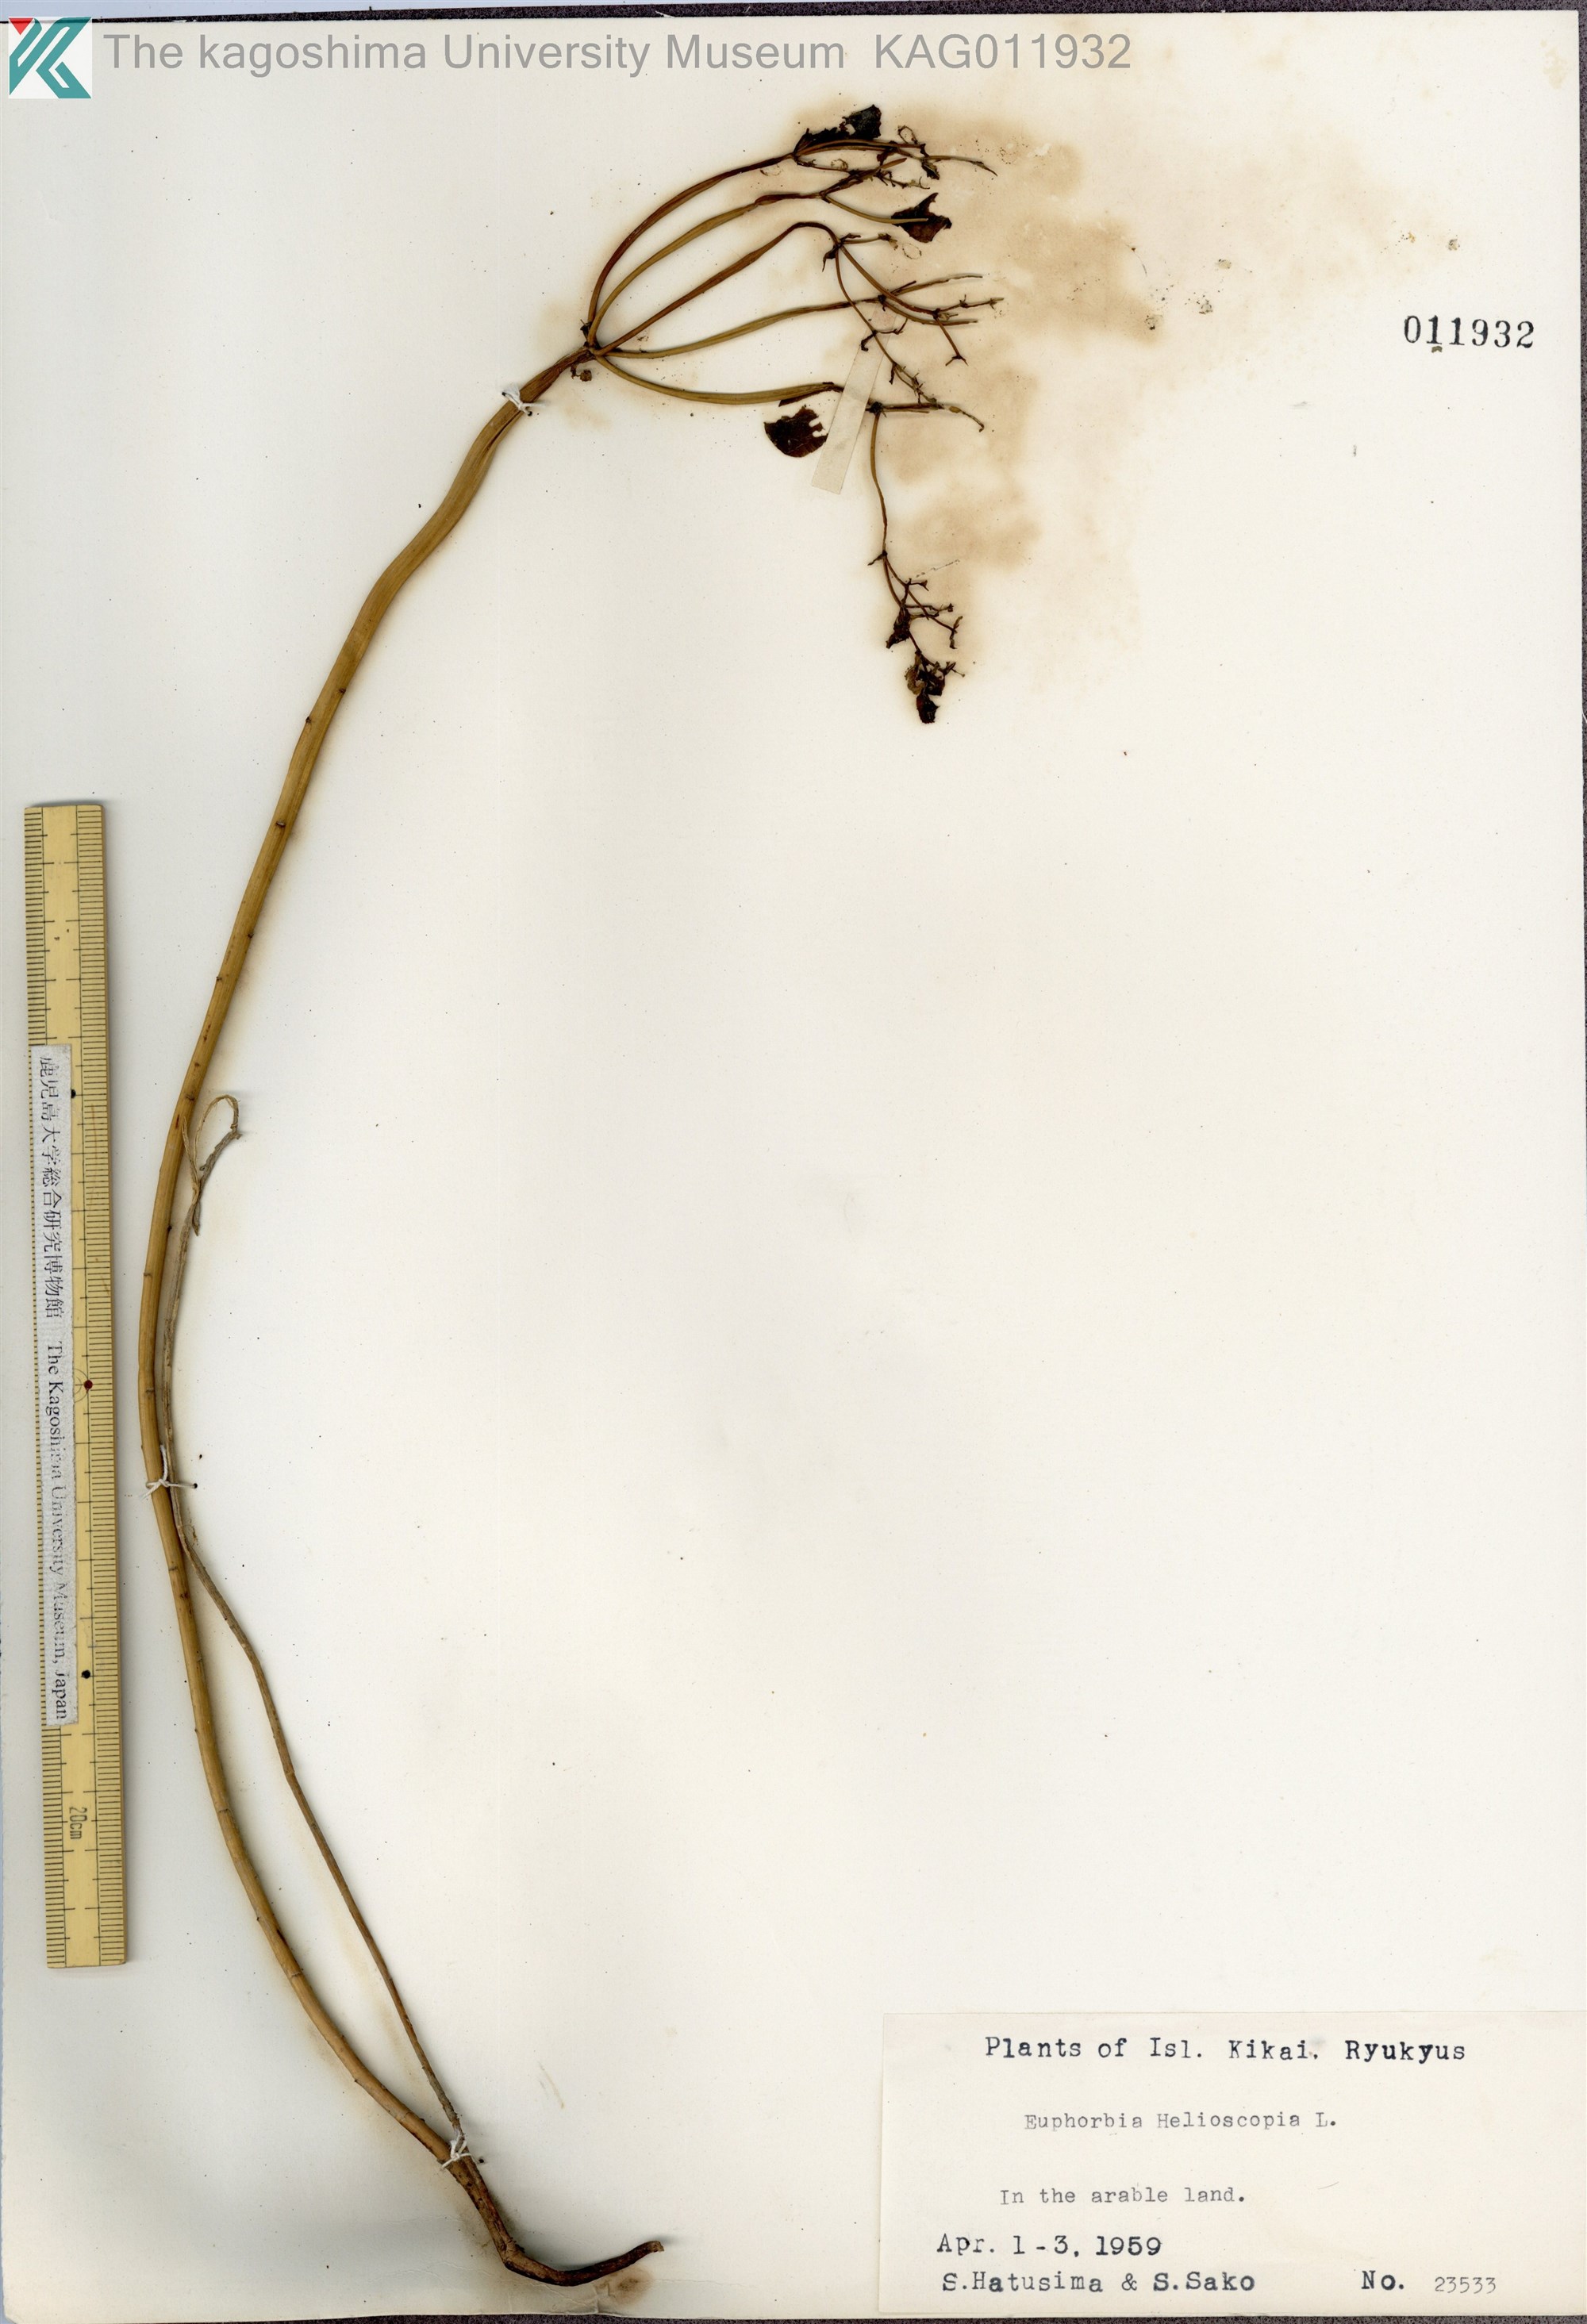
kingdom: Plantae
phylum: Tracheophyta
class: Magnoliopsida
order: Malpighiales
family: Euphorbiaceae
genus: Euphorbia
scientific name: Euphorbia helioscopia
